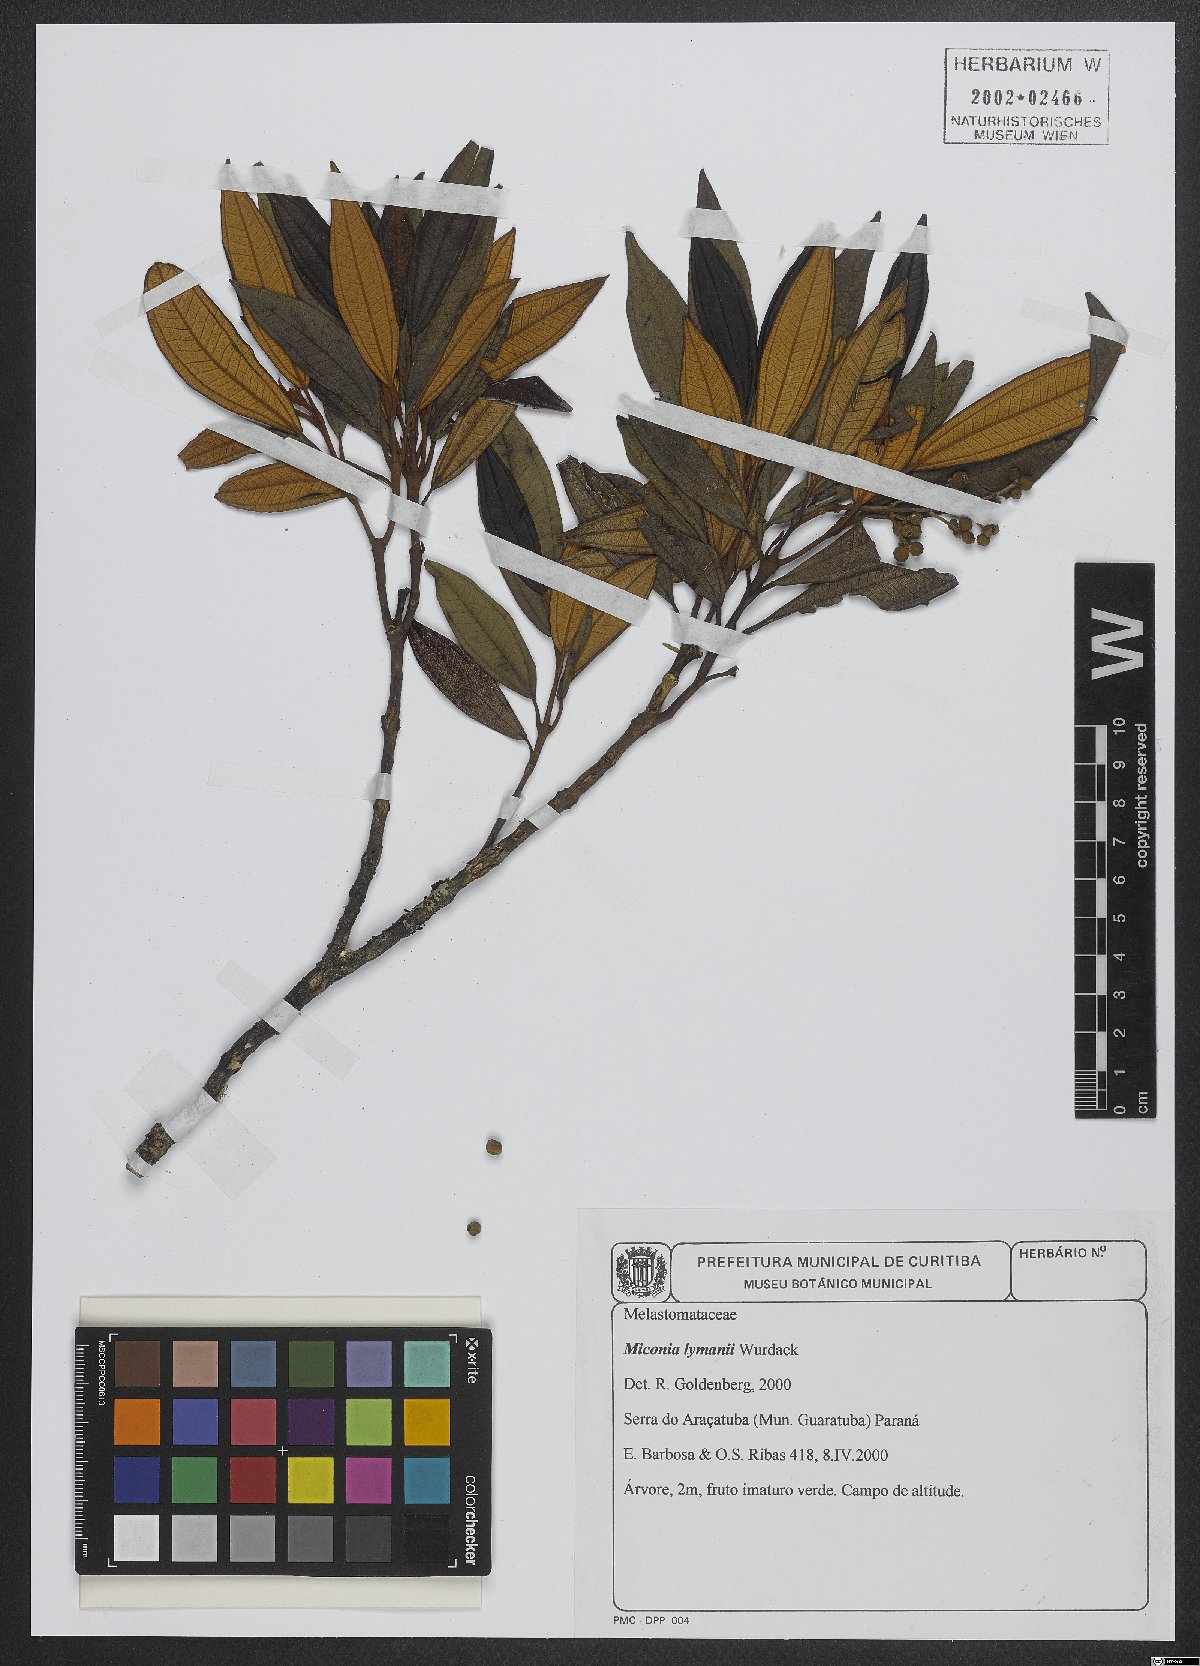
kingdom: Plantae
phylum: Tracheophyta
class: Magnoliopsida
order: Myrtales
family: Melastomataceae
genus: Miconia
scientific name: Miconia lymanii
